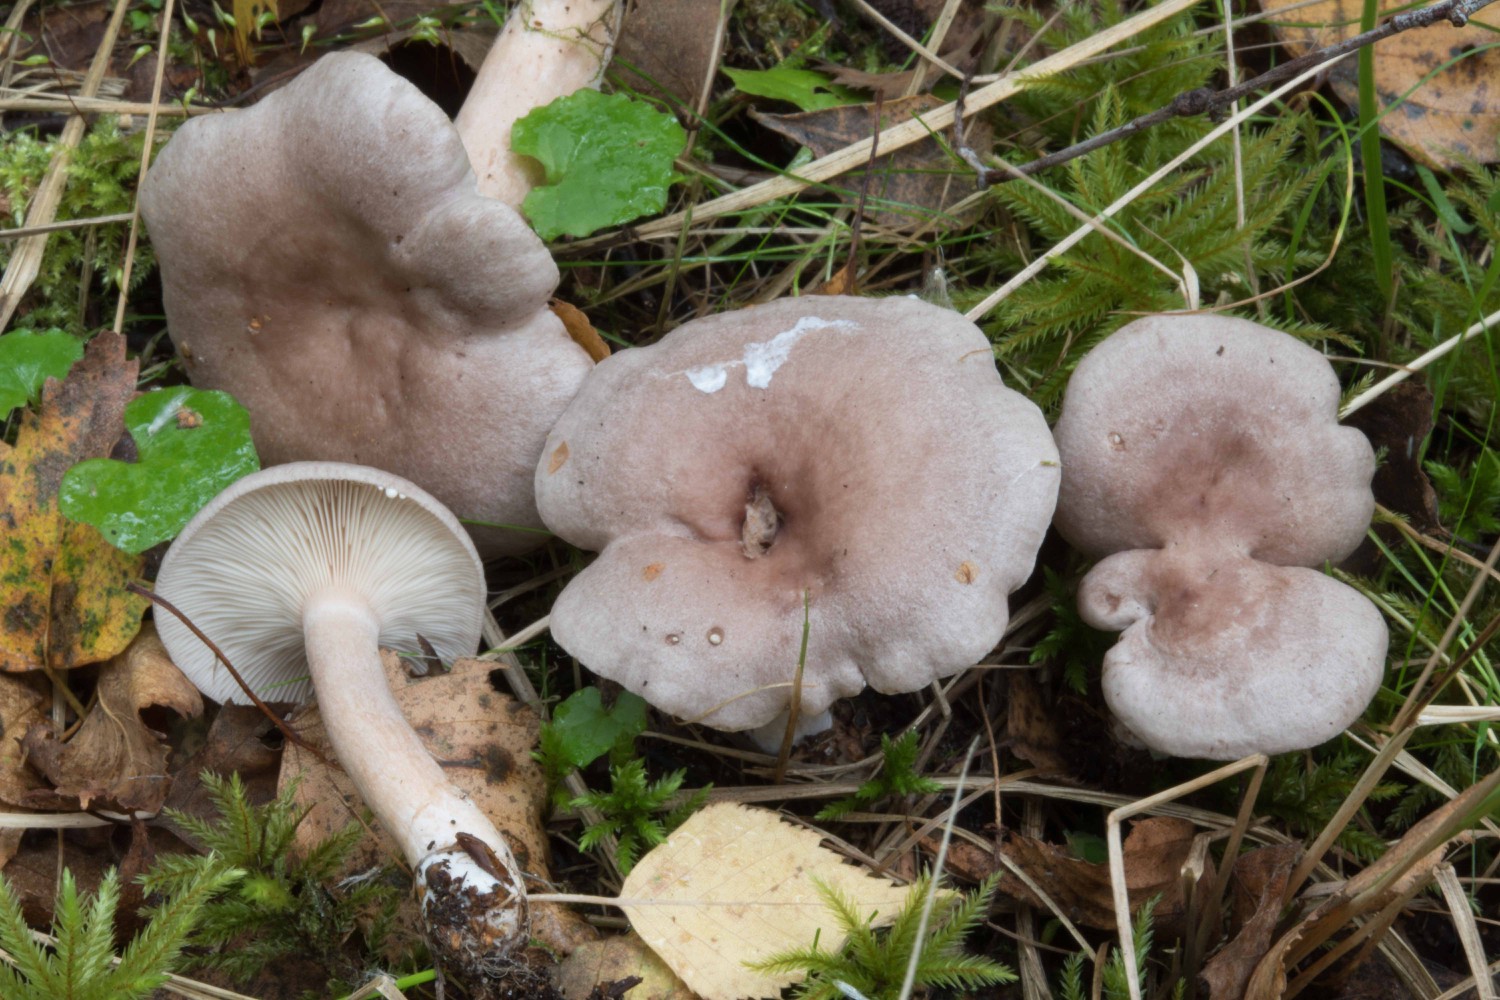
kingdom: Fungi
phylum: Basidiomycota
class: Agaricomycetes
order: Russulales
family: Russulaceae
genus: Lactarius
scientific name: Lactarius vietus
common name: violetgrå mælkehat
